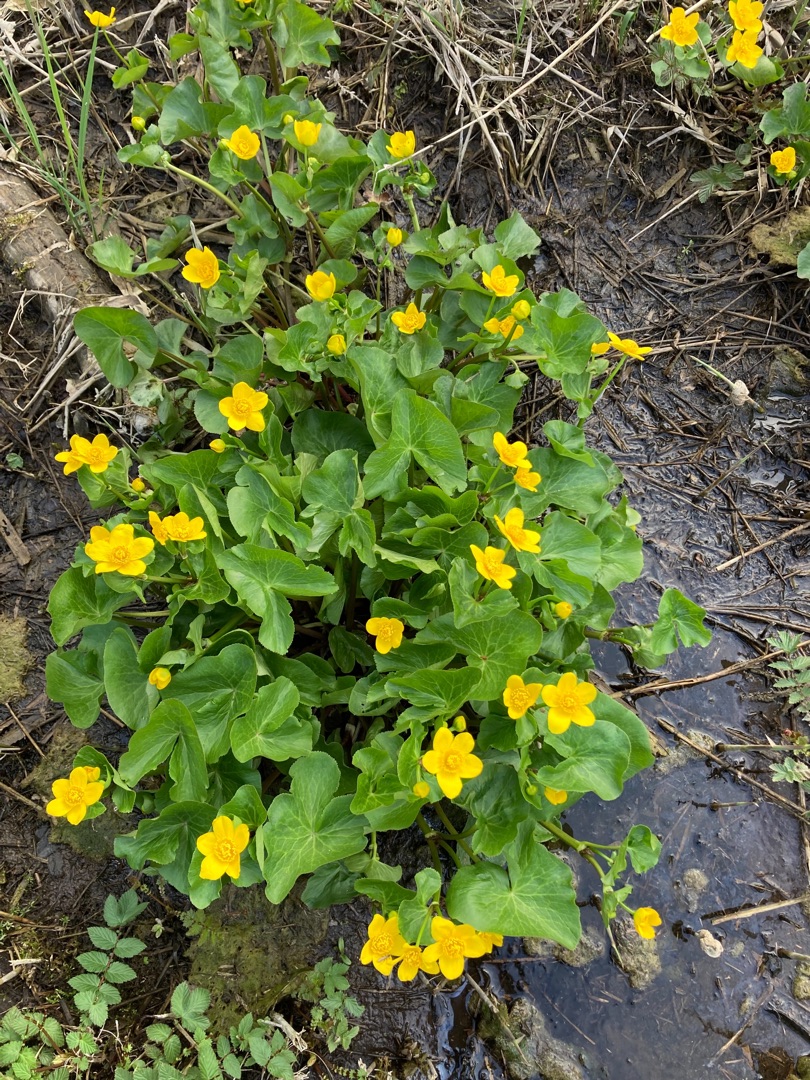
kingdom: Plantae
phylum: Tracheophyta
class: Magnoliopsida
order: Ranunculales
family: Ranunculaceae
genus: Caltha
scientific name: Caltha palustris
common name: Eng-kabbeleje
